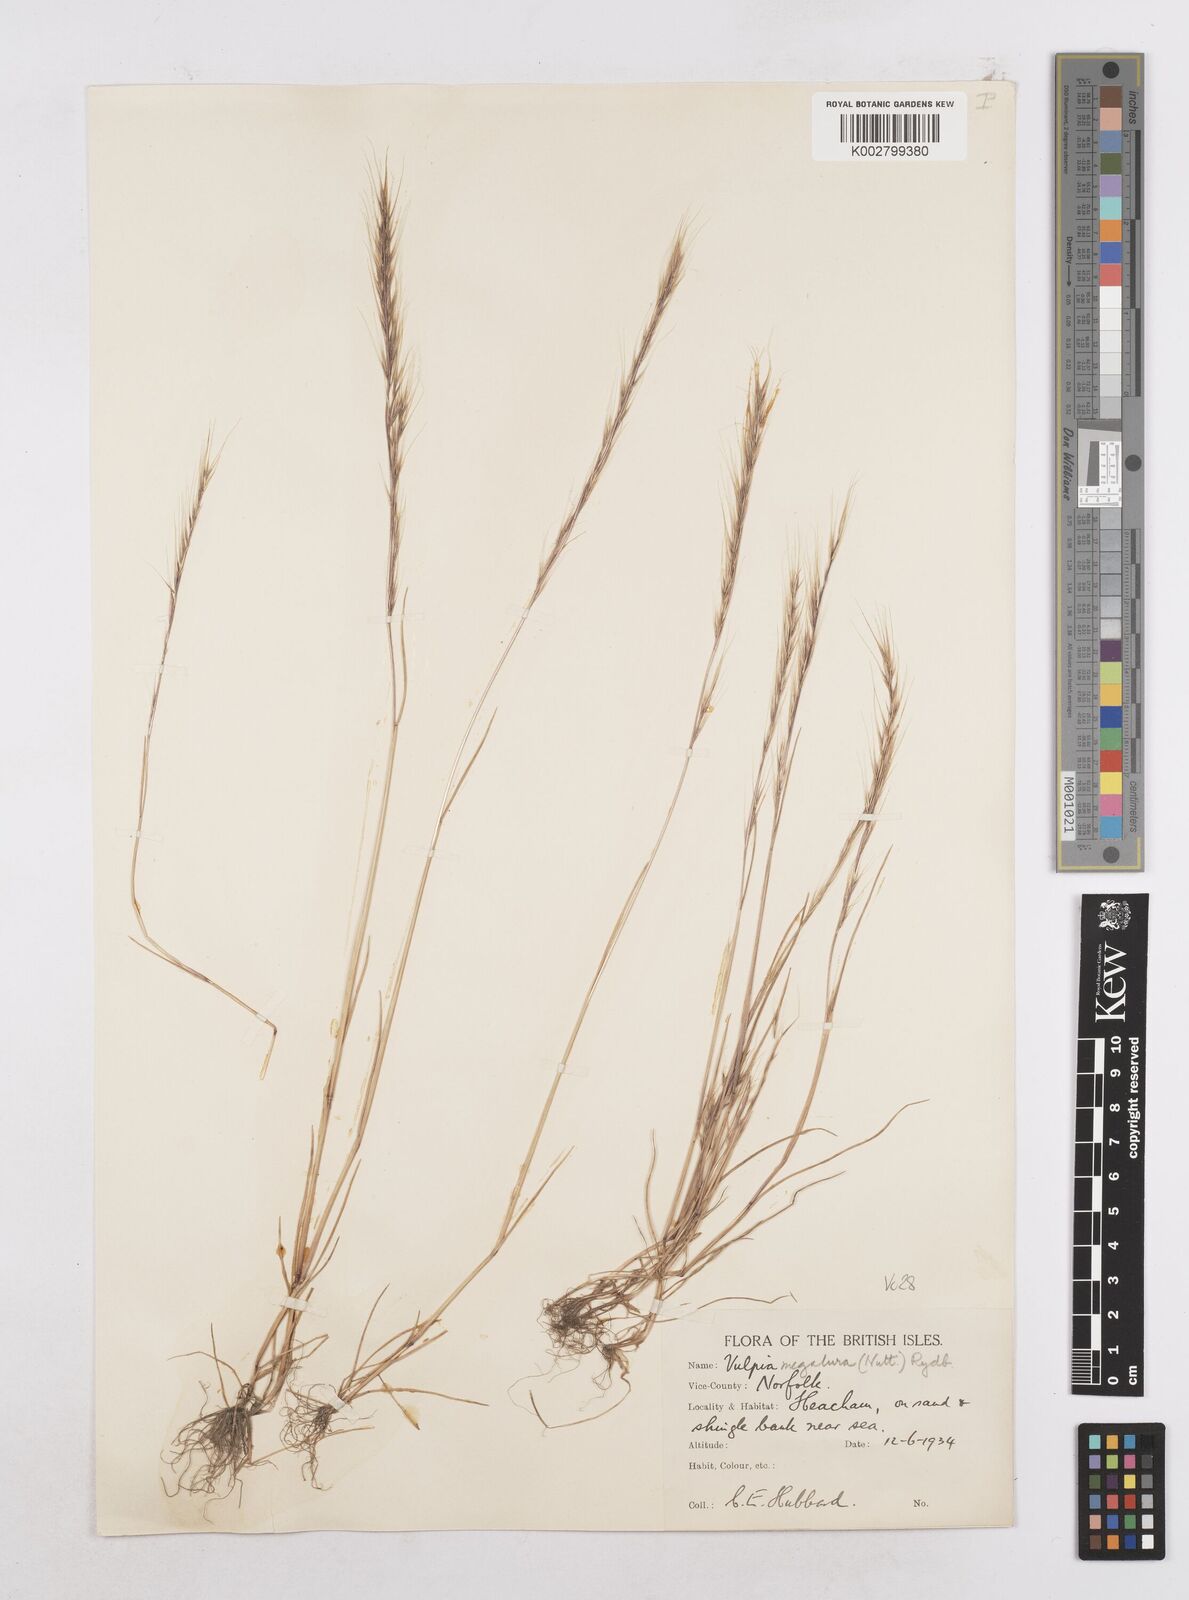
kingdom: Plantae
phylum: Tracheophyta
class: Liliopsida
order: Poales
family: Poaceae
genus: Festuca
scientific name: Festuca myuros
